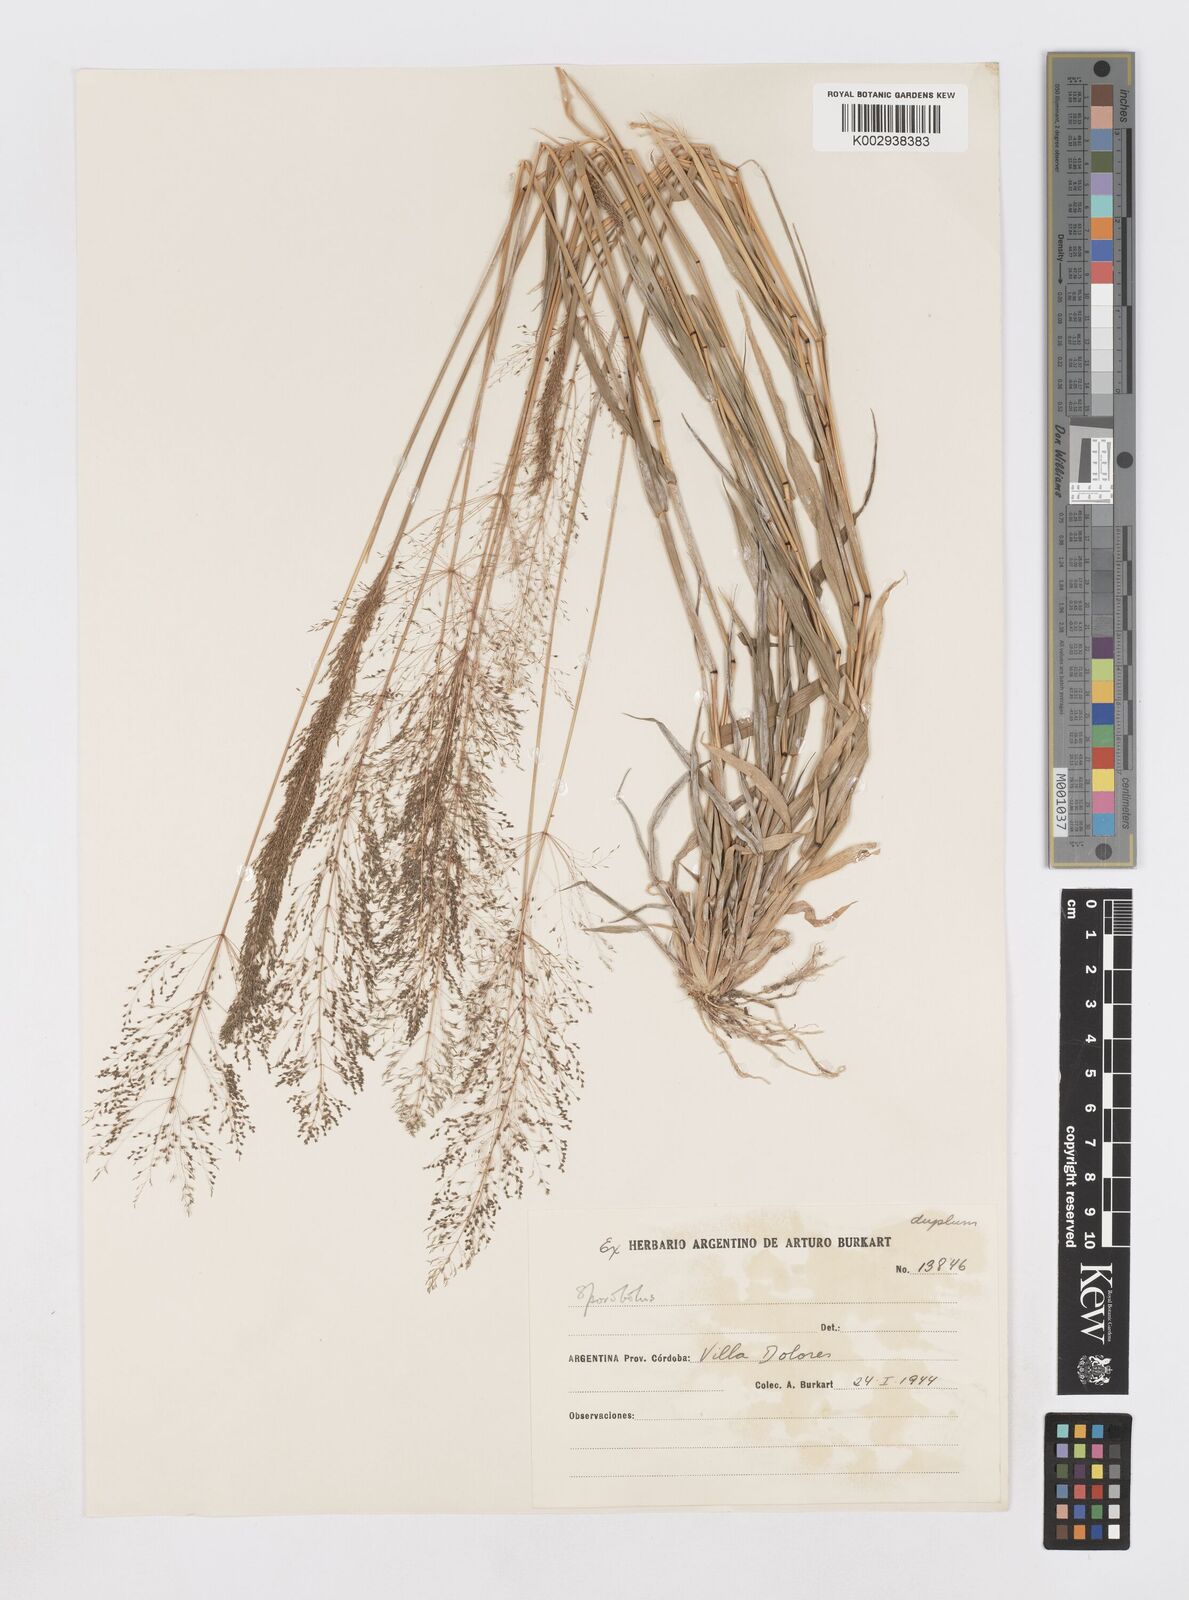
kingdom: Plantae
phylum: Tracheophyta
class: Liliopsida
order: Poales
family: Poaceae
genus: Sporobolus
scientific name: Sporobolus pyramidatus
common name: Whorled dropseed
